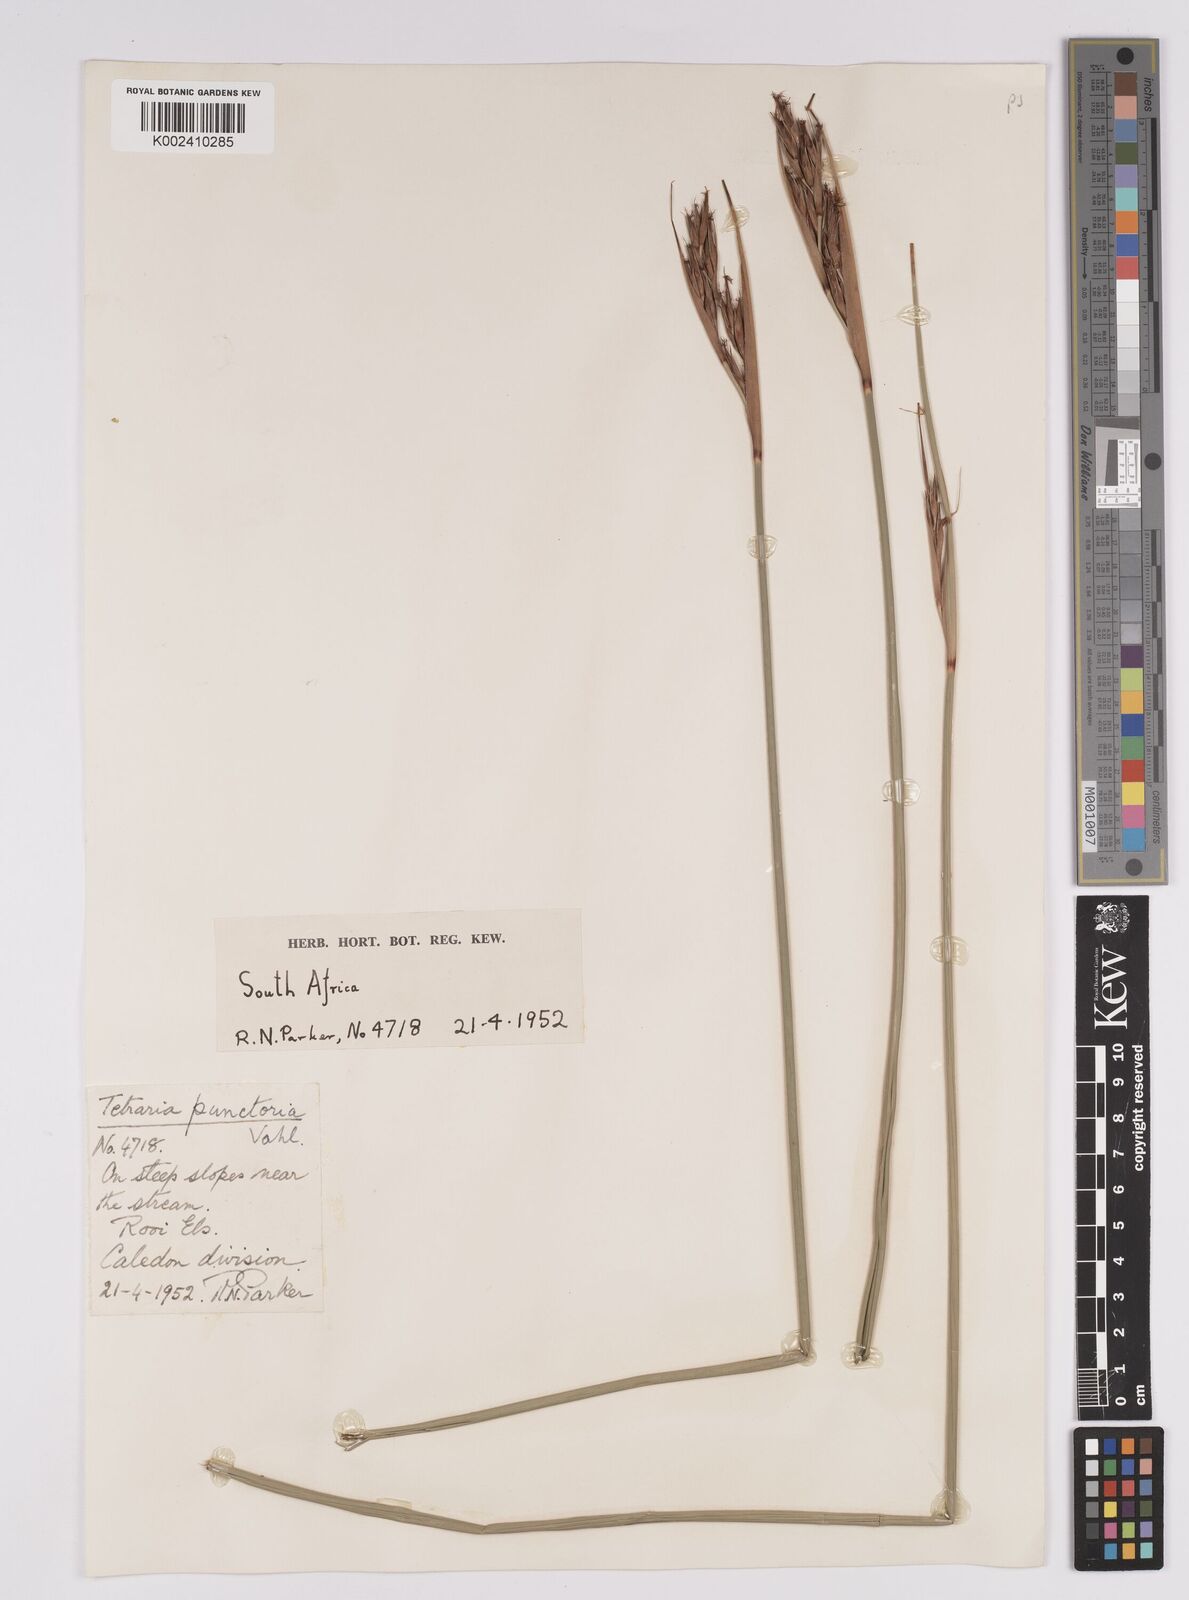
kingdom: Plantae
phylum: Tracheophyta
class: Liliopsida
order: Poales
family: Cyperaceae
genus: Neesenbeckia
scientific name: Neesenbeckia punctoria
